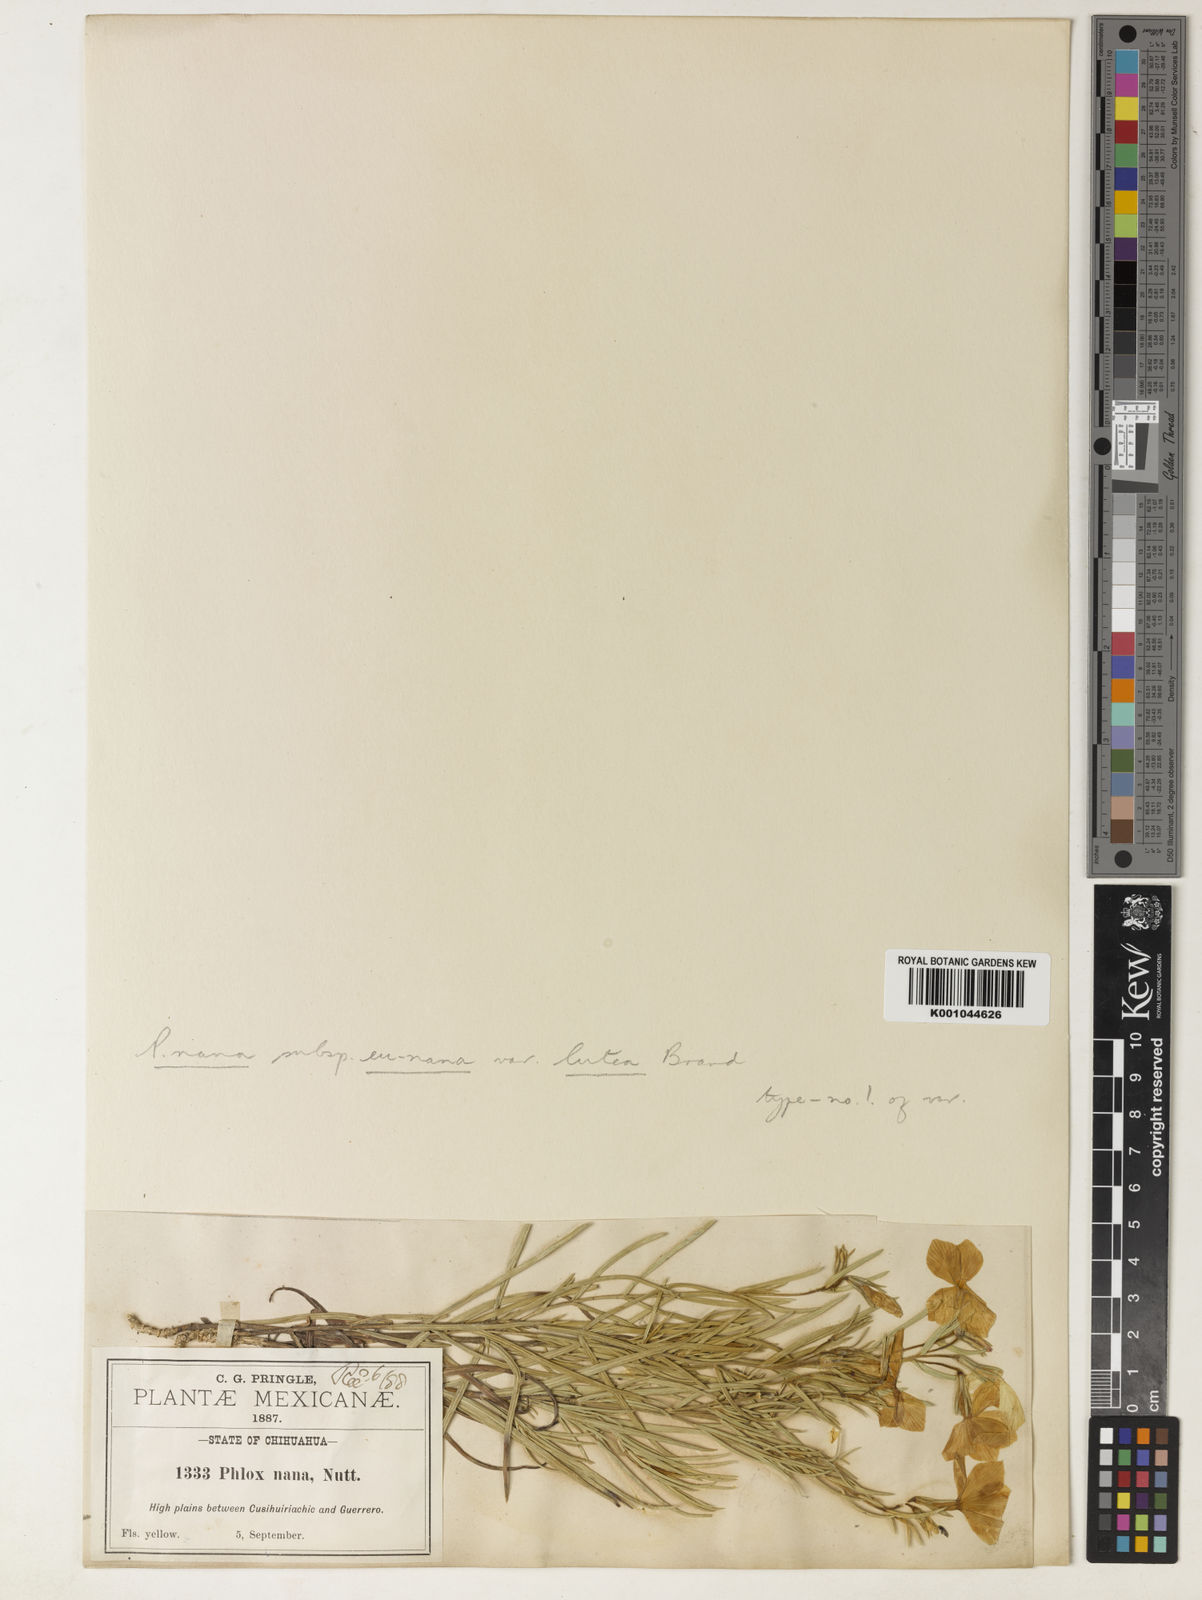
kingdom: Plantae
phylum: Tracheophyta
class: Magnoliopsida
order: Ericales
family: Polemoniaceae
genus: Phlox
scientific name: Phlox nana
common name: Santa fe phlox
